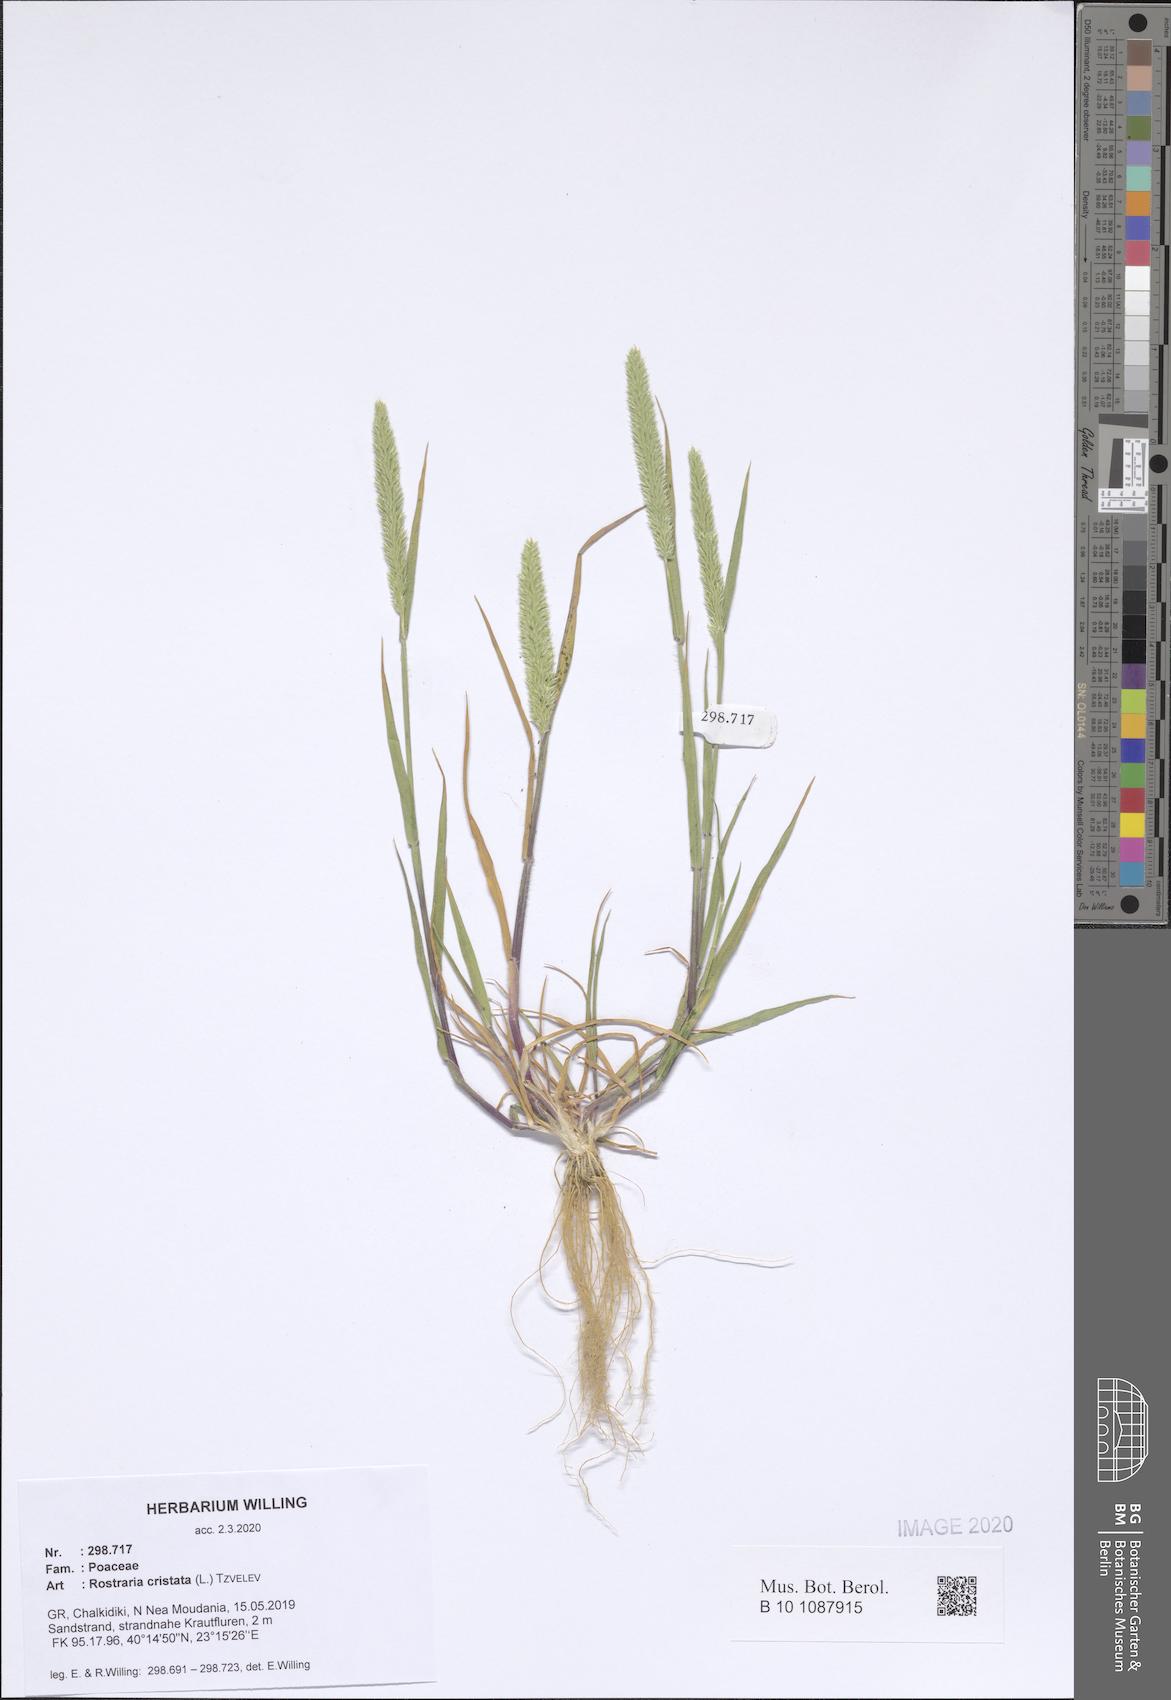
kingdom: Plantae
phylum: Tracheophyta
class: Liliopsida
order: Poales
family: Poaceae
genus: Rostraria
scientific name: Rostraria cristata
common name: Mediterranean hair-grass
